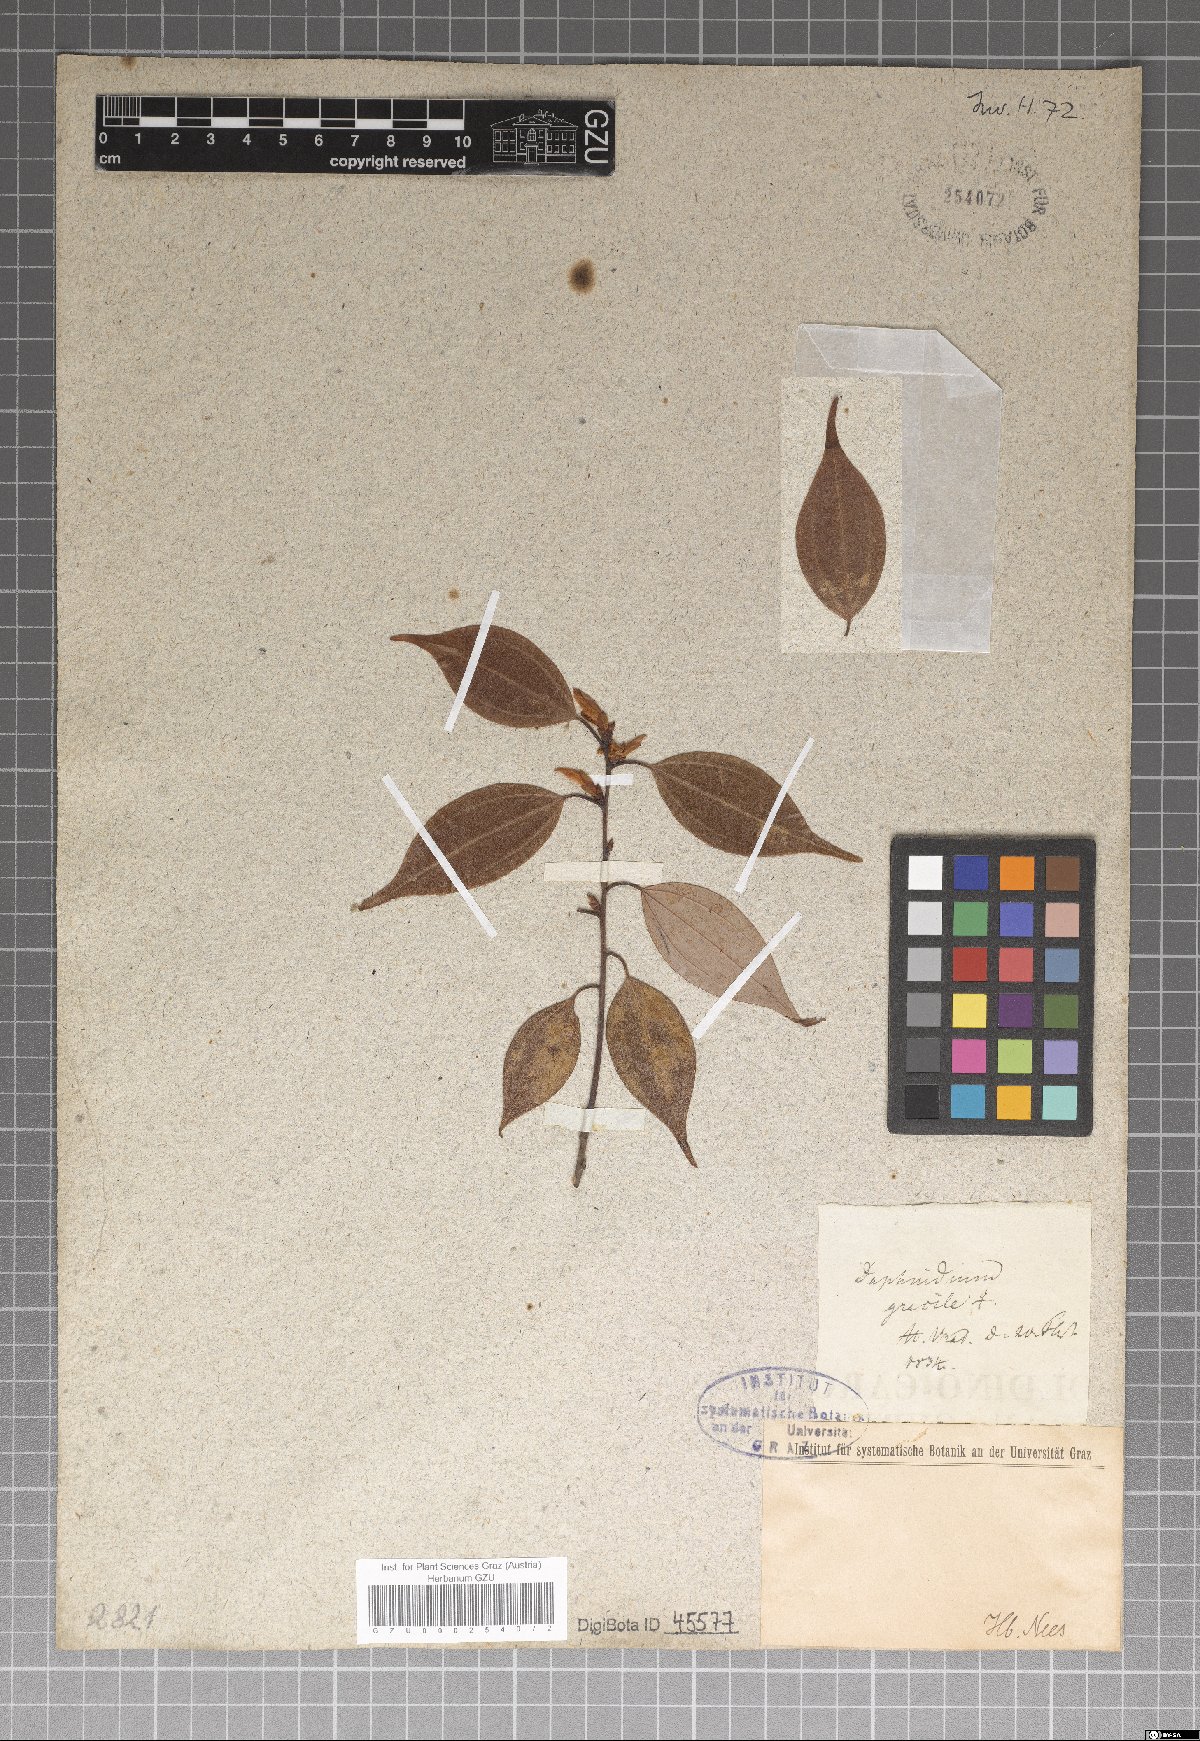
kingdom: Plantae
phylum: Tracheophyta
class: Magnoliopsida
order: Laurales
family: Lauraceae
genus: Cinnamomum
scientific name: Cinnamomum culitlawan
